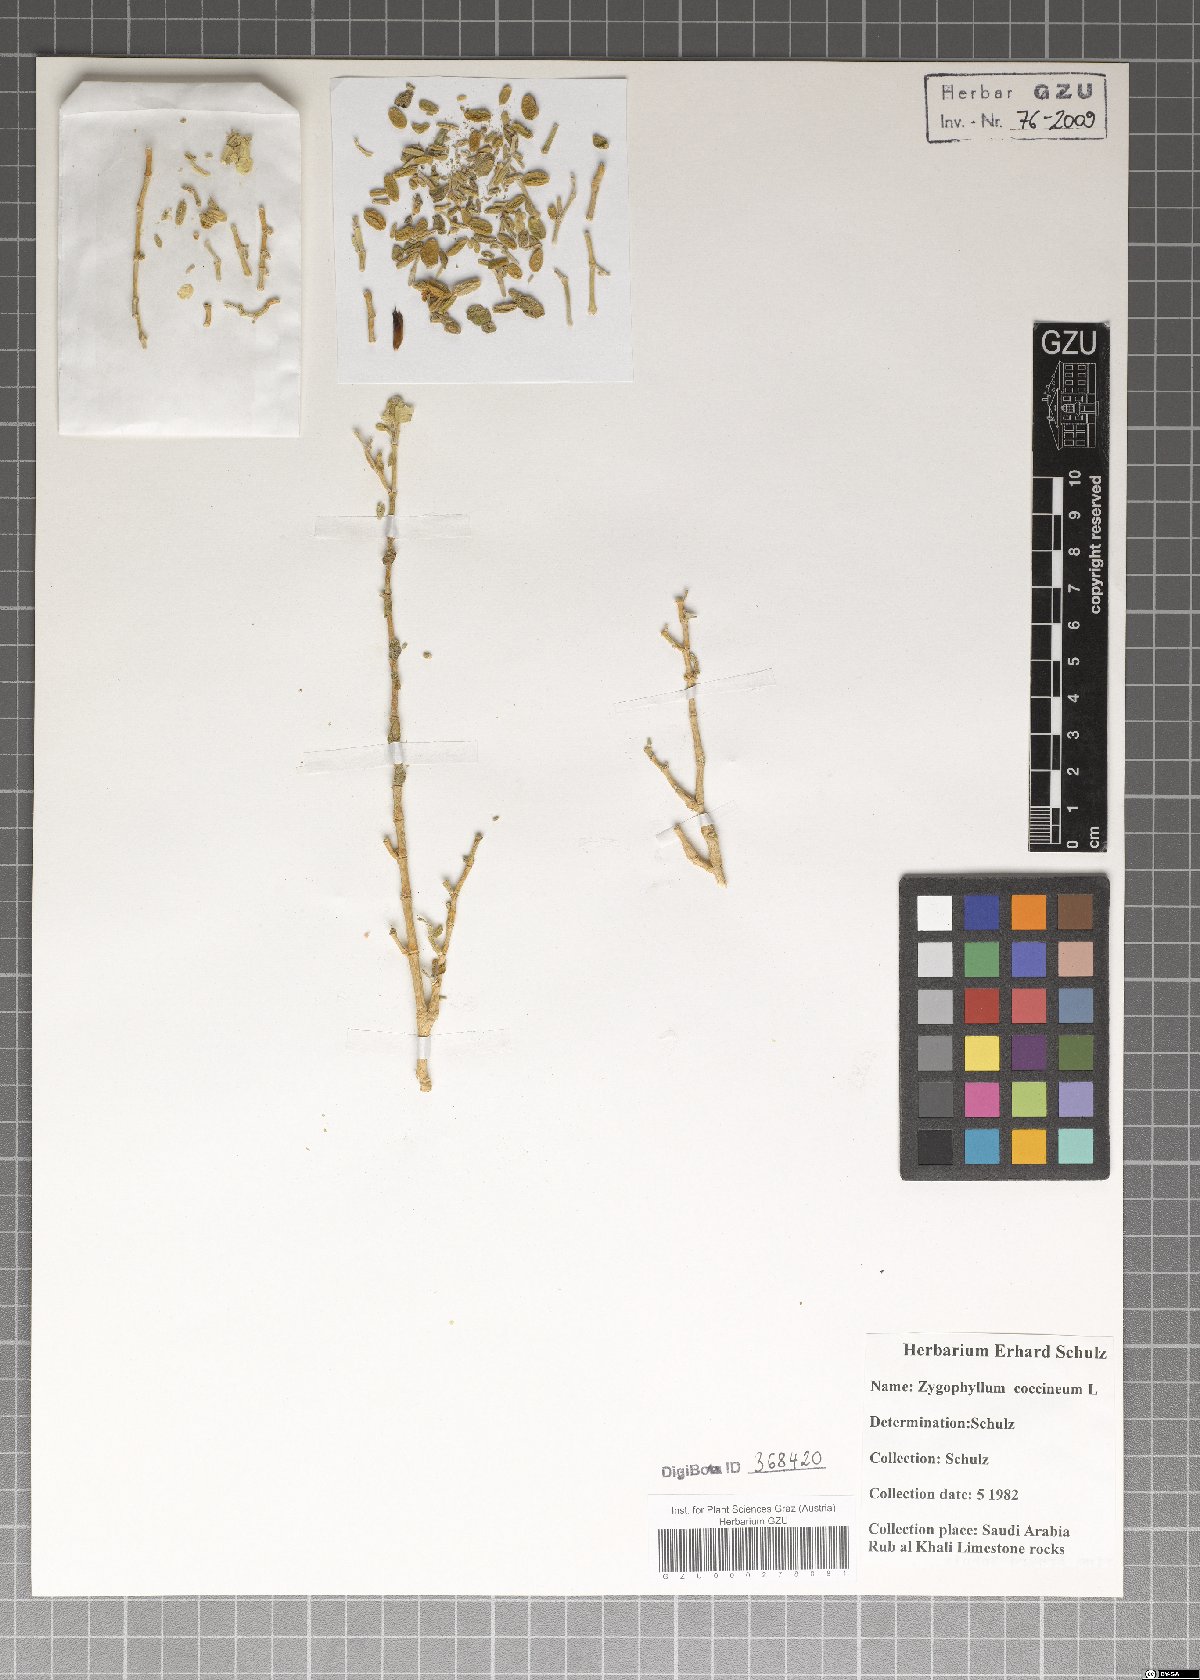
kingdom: Plantae
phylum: Tracheophyta
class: Magnoliopsida
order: Zygophyllales
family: Zygophyllaceae
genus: Tetraena
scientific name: Tetraena coccinea
